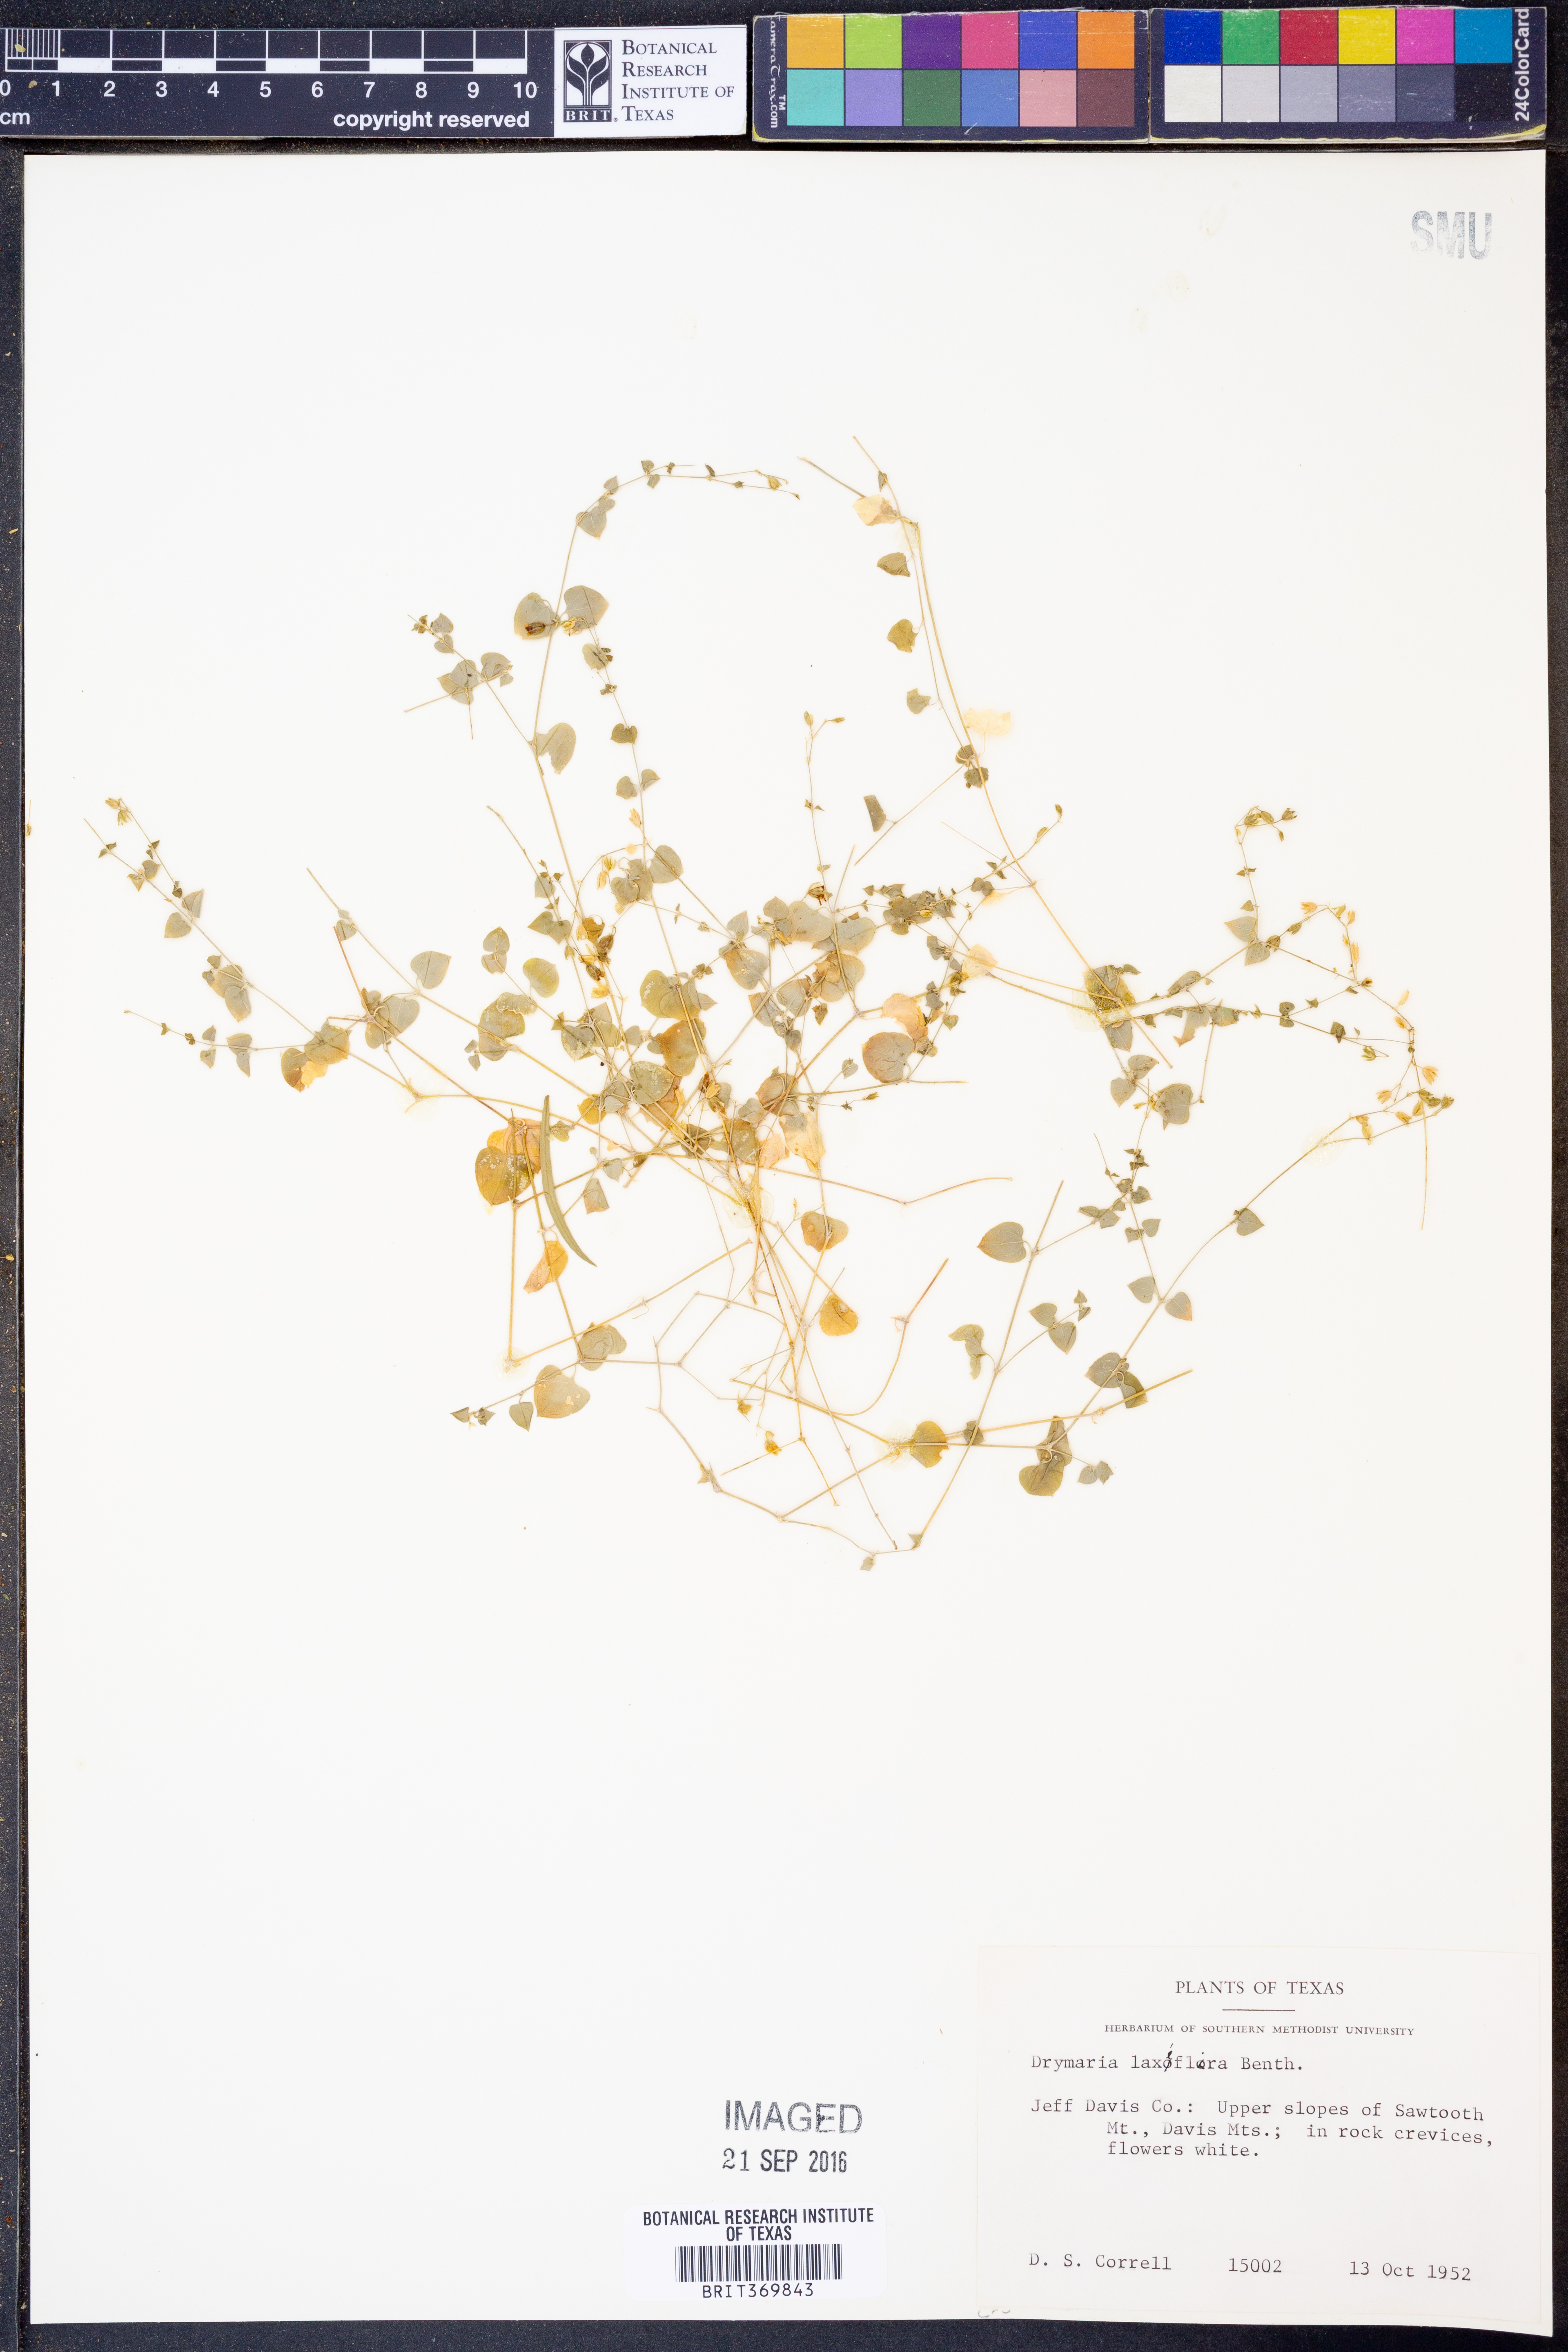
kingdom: Plantae
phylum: Tracheophyta
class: Magnoliopsida
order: Caryophyllales
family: Caryophyllaceae
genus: Drymaria
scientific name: Drymaria laxiflora
